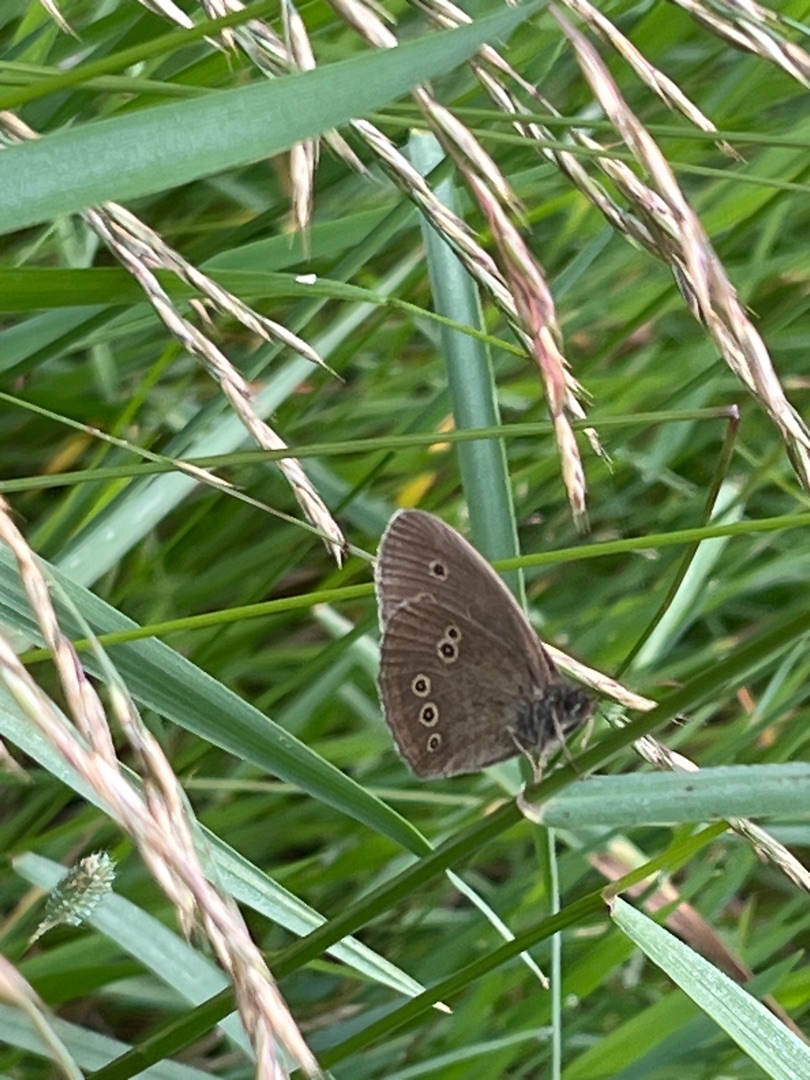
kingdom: Animalia
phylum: Arthropoda
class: Insecta
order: Lepidoptera
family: Nymphalidae
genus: Aphantopus
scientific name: Aphantopus hyperantus
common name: Engrandøje
